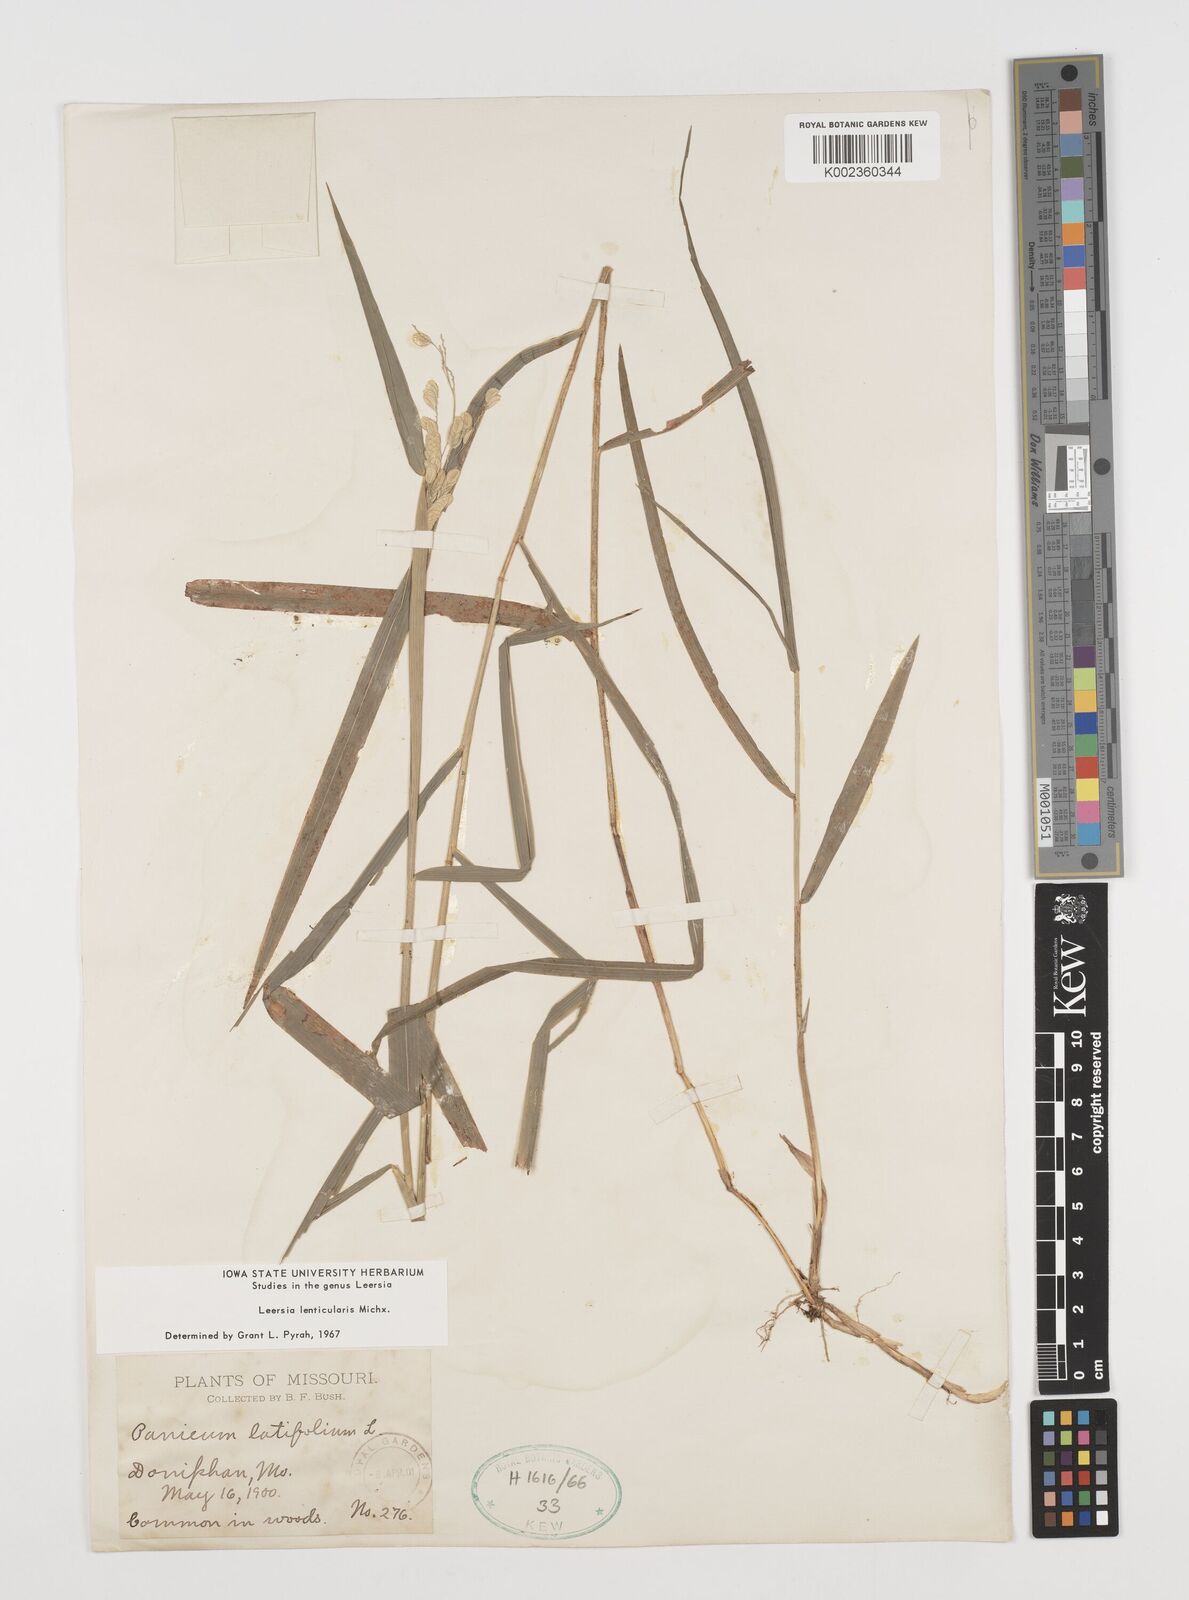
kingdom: Plantae
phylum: Tracheophyta
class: Liliopsida
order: Poales
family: Poaceae
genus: Leersia
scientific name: Leersia lenticularis
